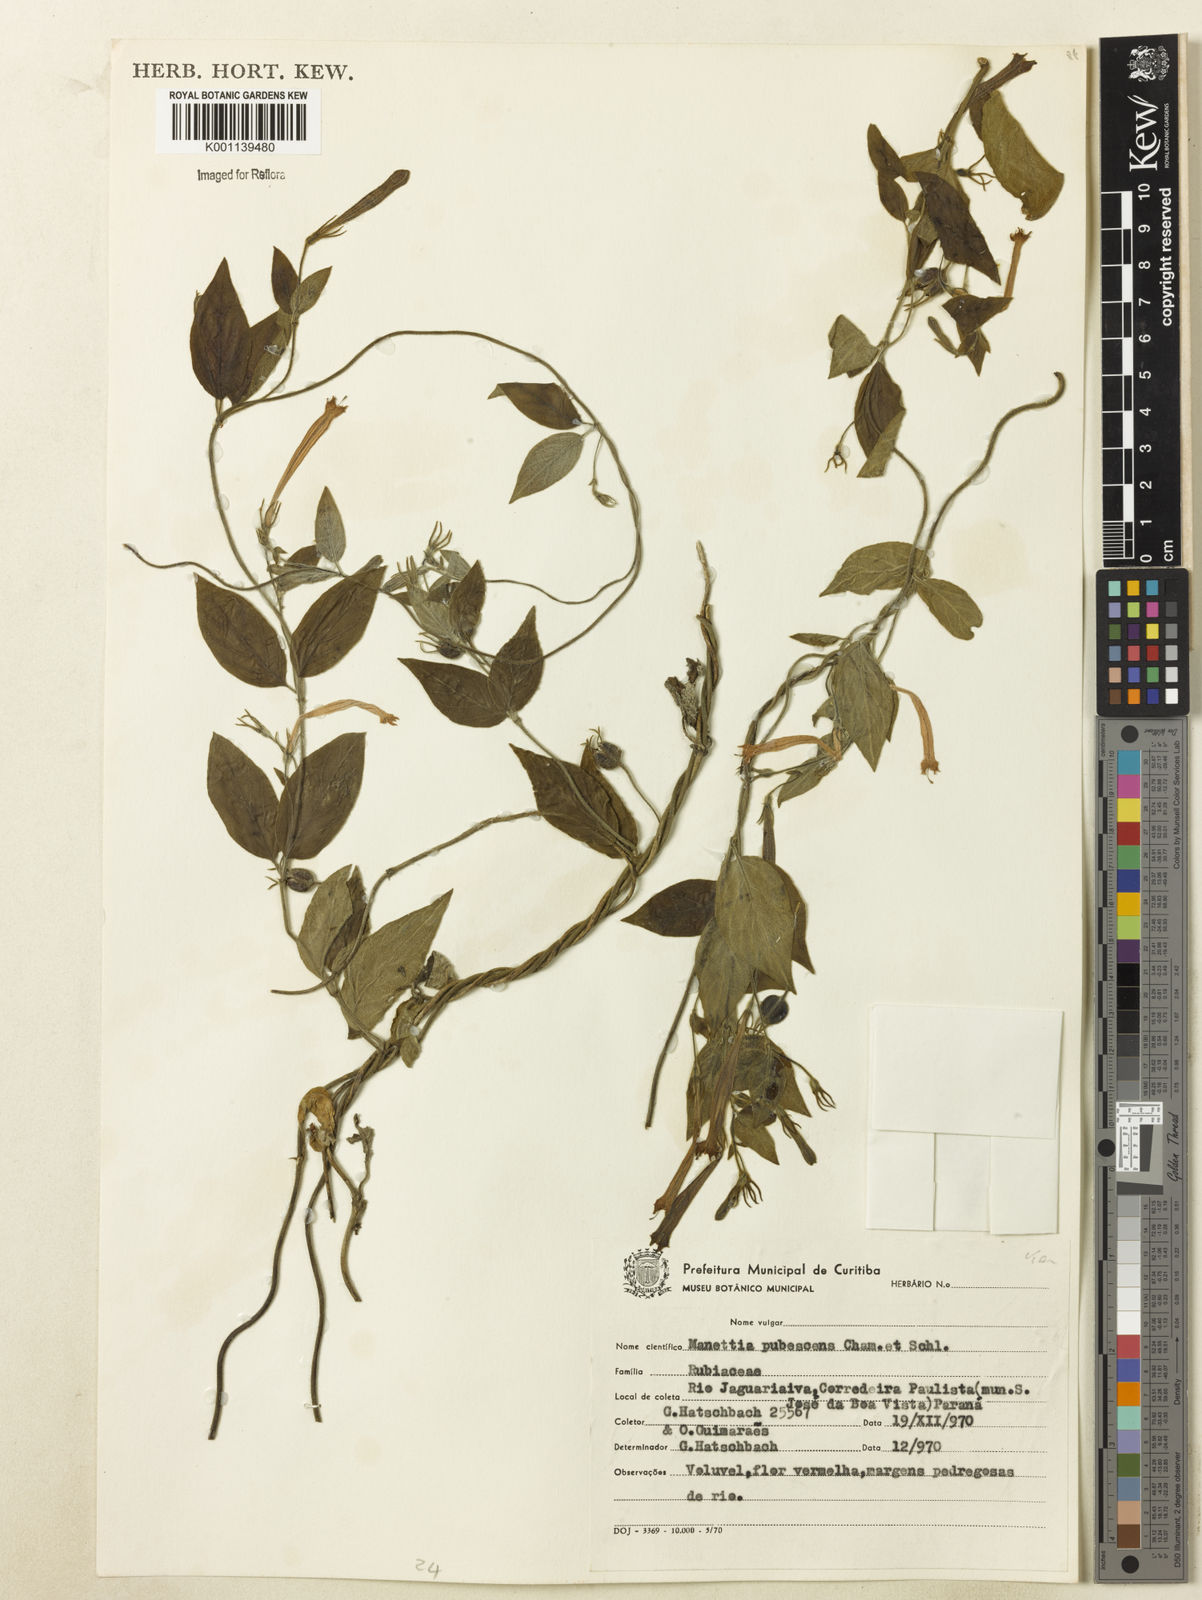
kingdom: Plantae
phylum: Tracheophyta
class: Magnoliopsida
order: Gentianales
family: Rubiaceae
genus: Manettia
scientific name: Manettia pubescens
